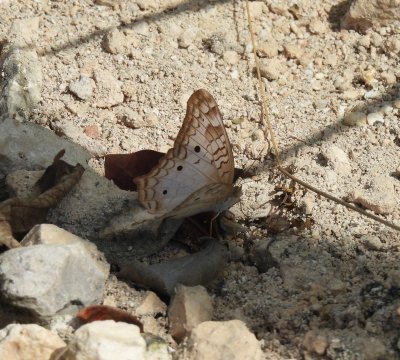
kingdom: Animalia
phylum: Arthropoda
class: Insecta
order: Lepidoptera
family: Nymphalidae
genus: Anartia
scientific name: Anartia jatrophae
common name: White Peacock
